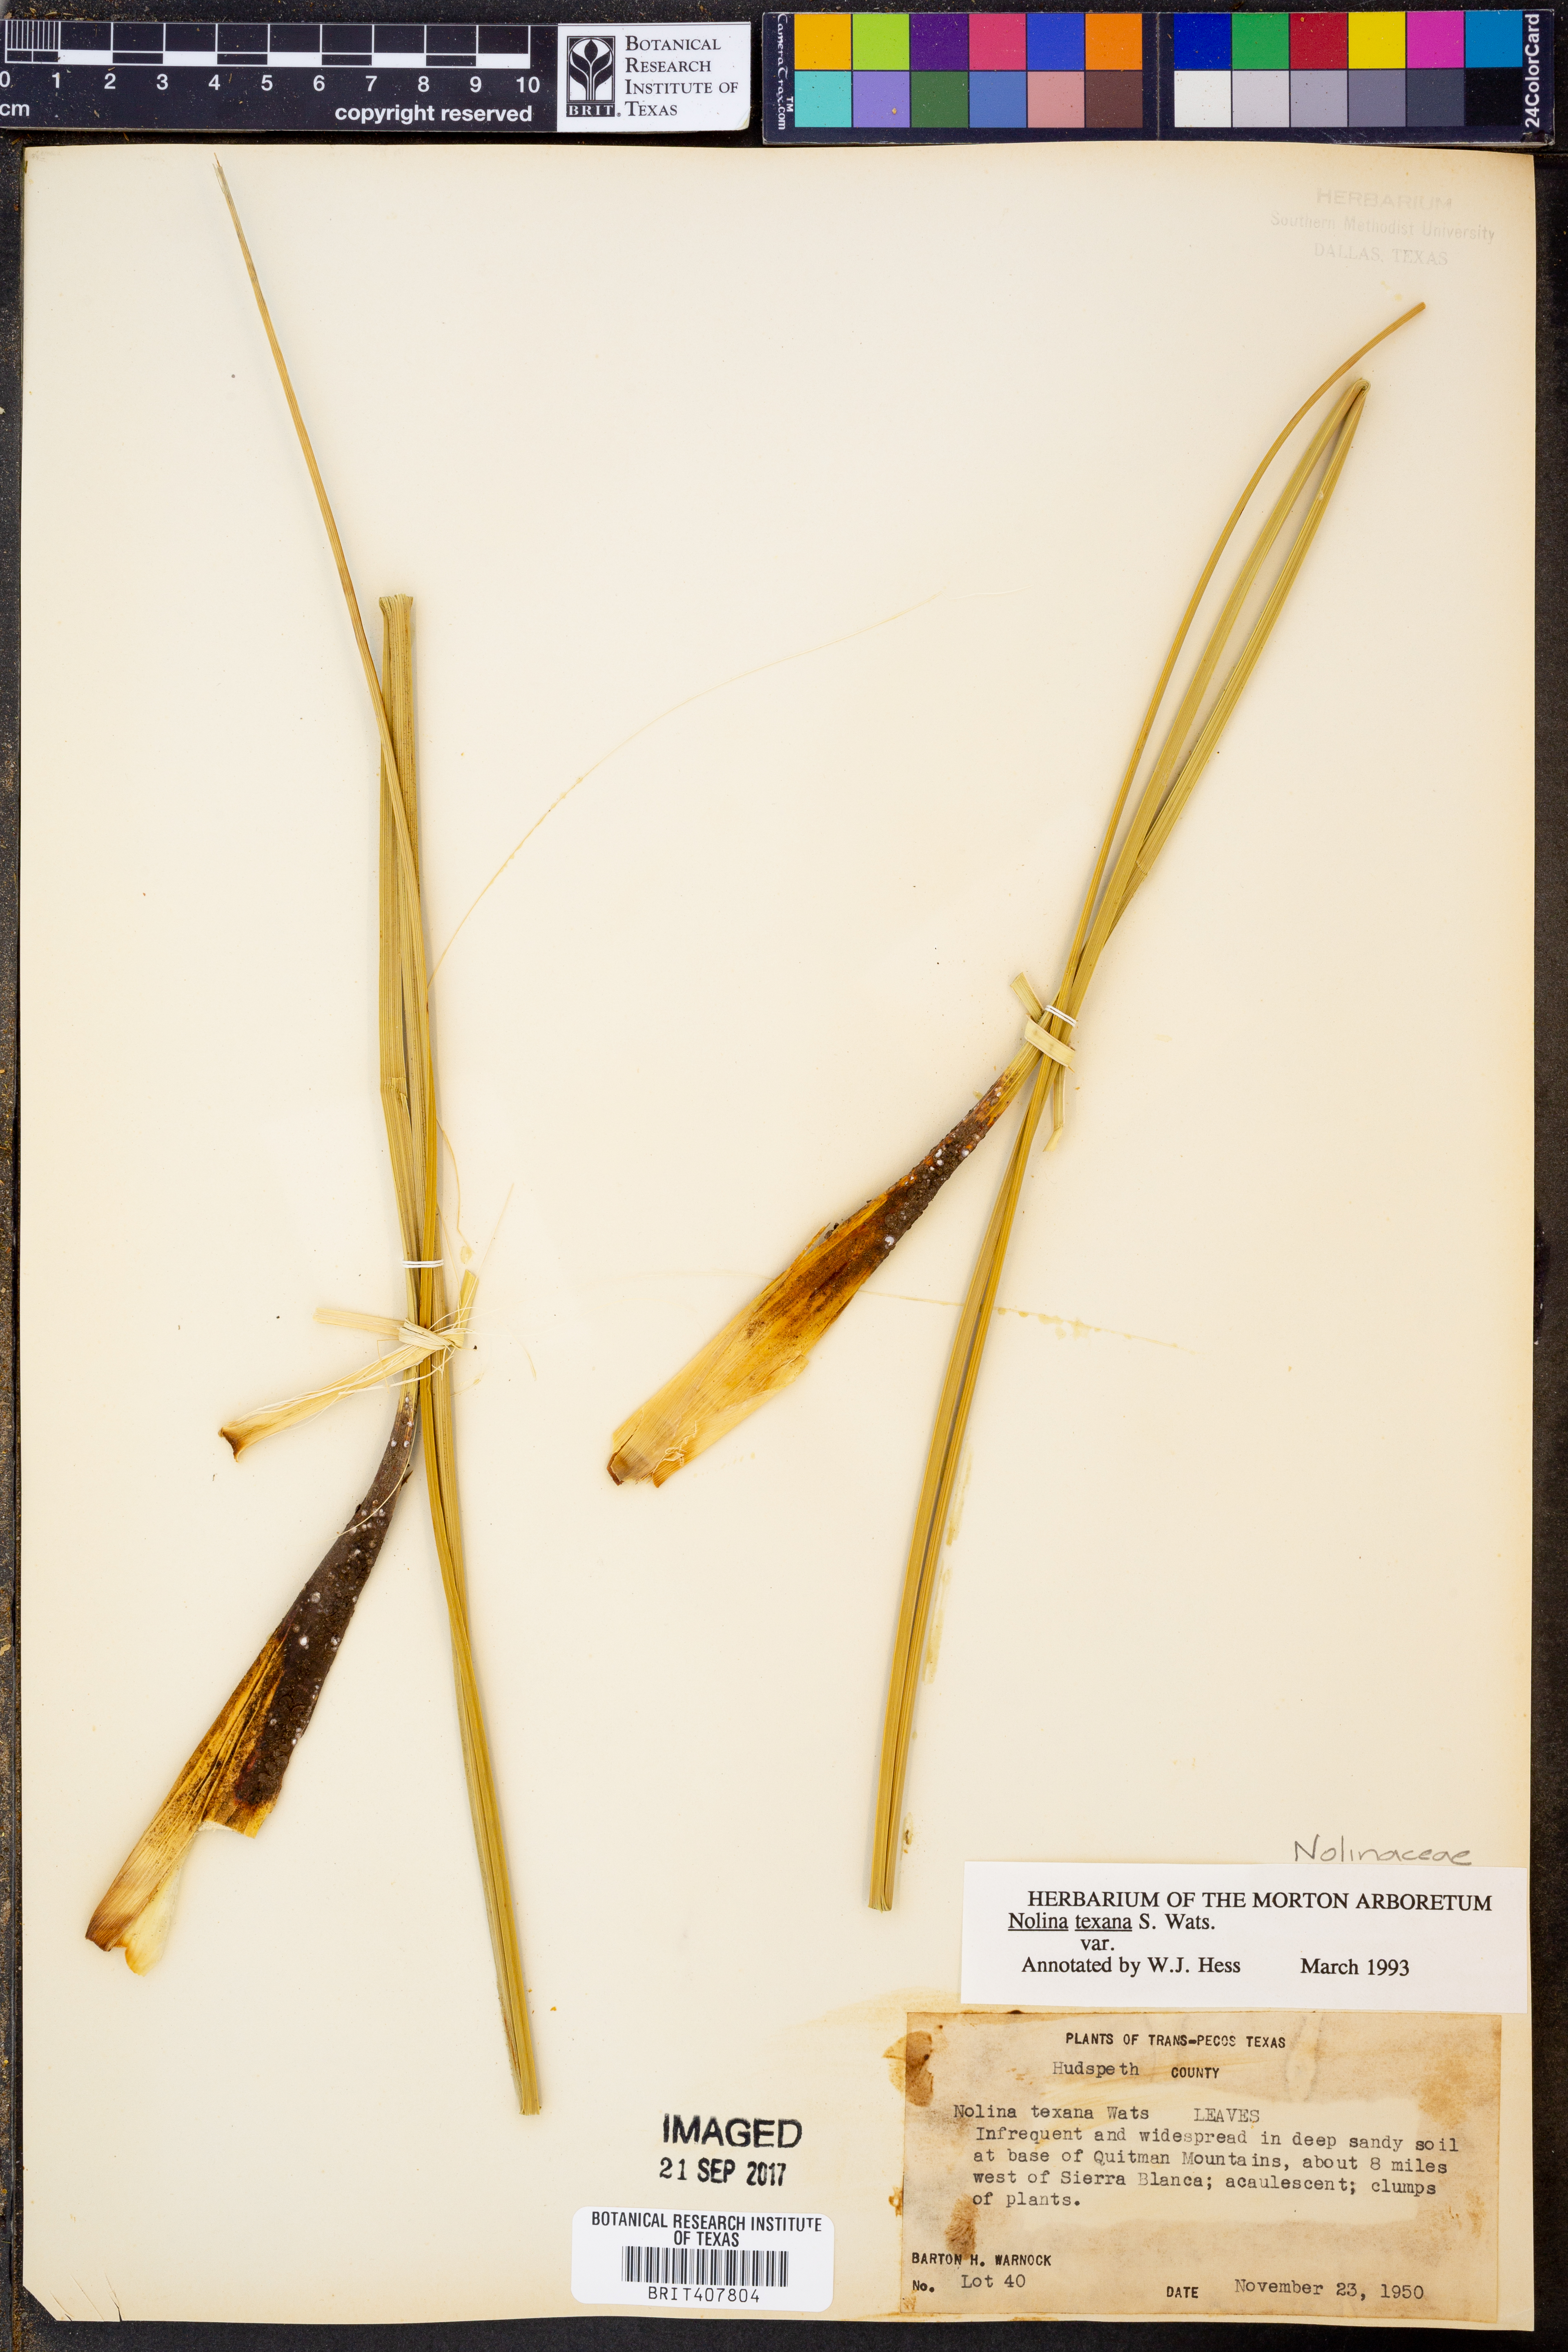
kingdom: Plantae
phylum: Tracheophyta
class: Liliopsida
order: Asparagales
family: Asparagaceae
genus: Nolina
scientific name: Nolina texana
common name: Texas sacahuiste
